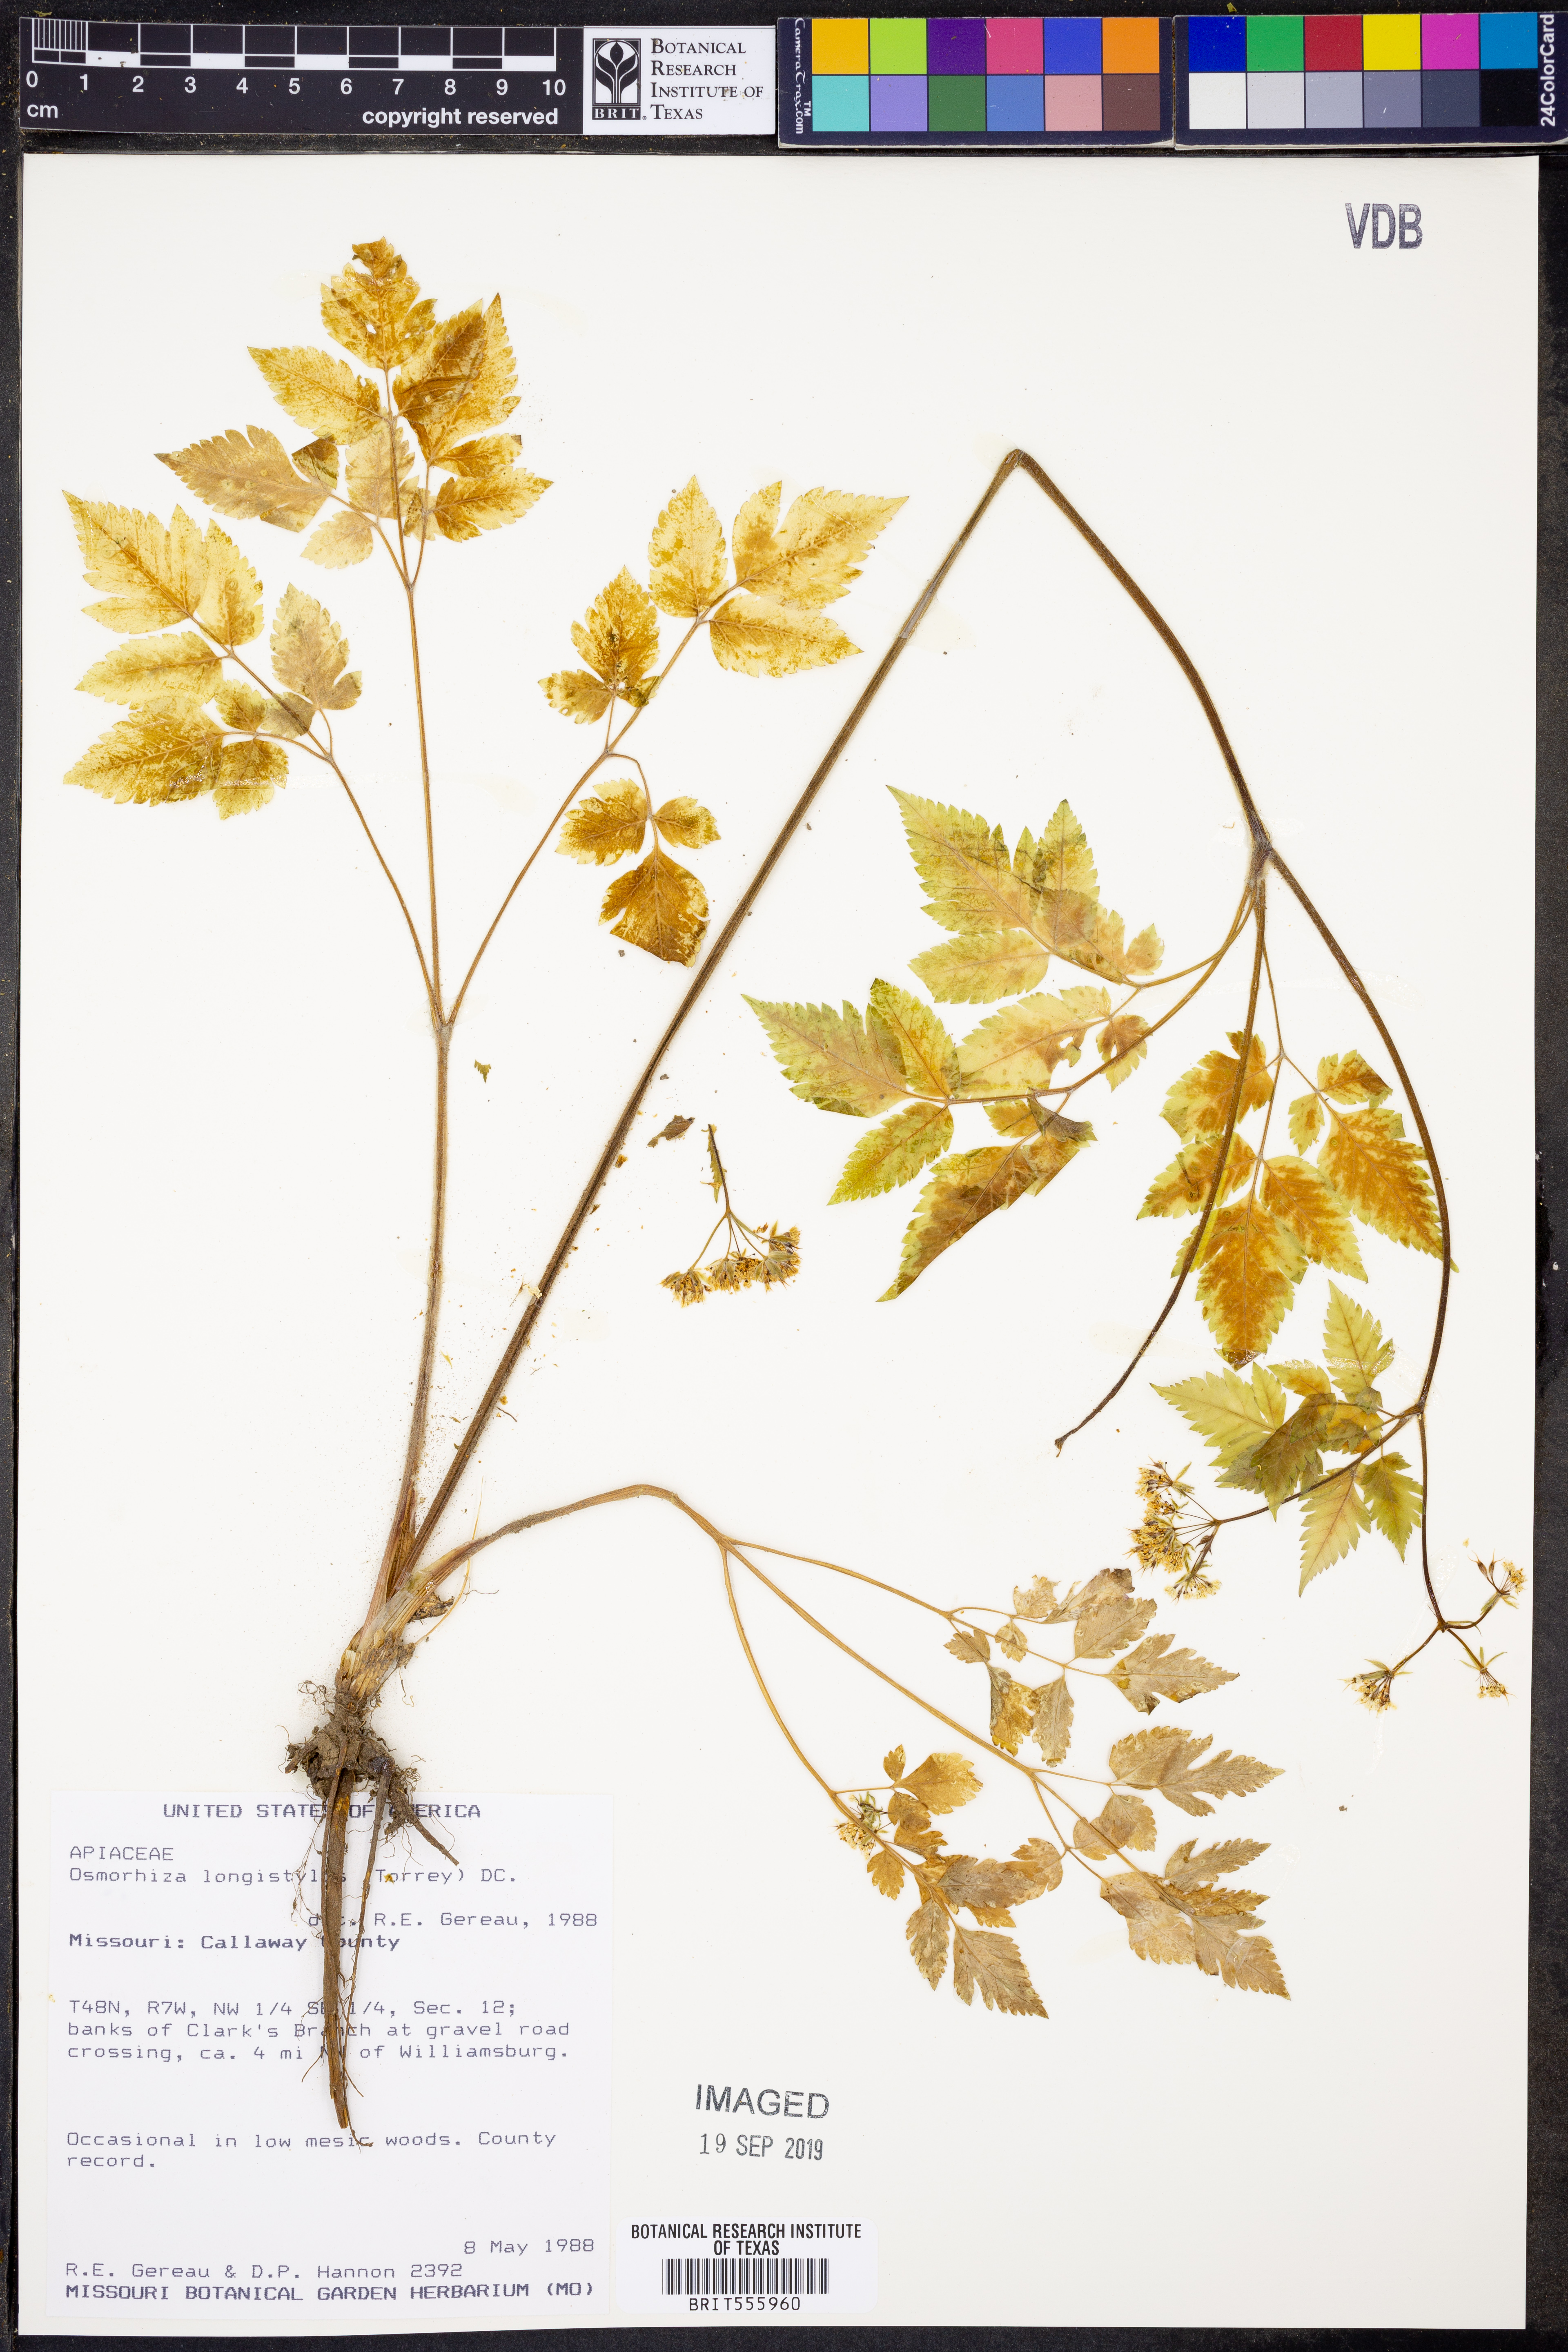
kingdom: Plantae
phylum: Tracheophyta
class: Magnoliopsida
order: Apiales
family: Apiaceae
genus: Osmorhiza
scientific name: Osmorhiza longistylis
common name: Smooth sweet cicely
